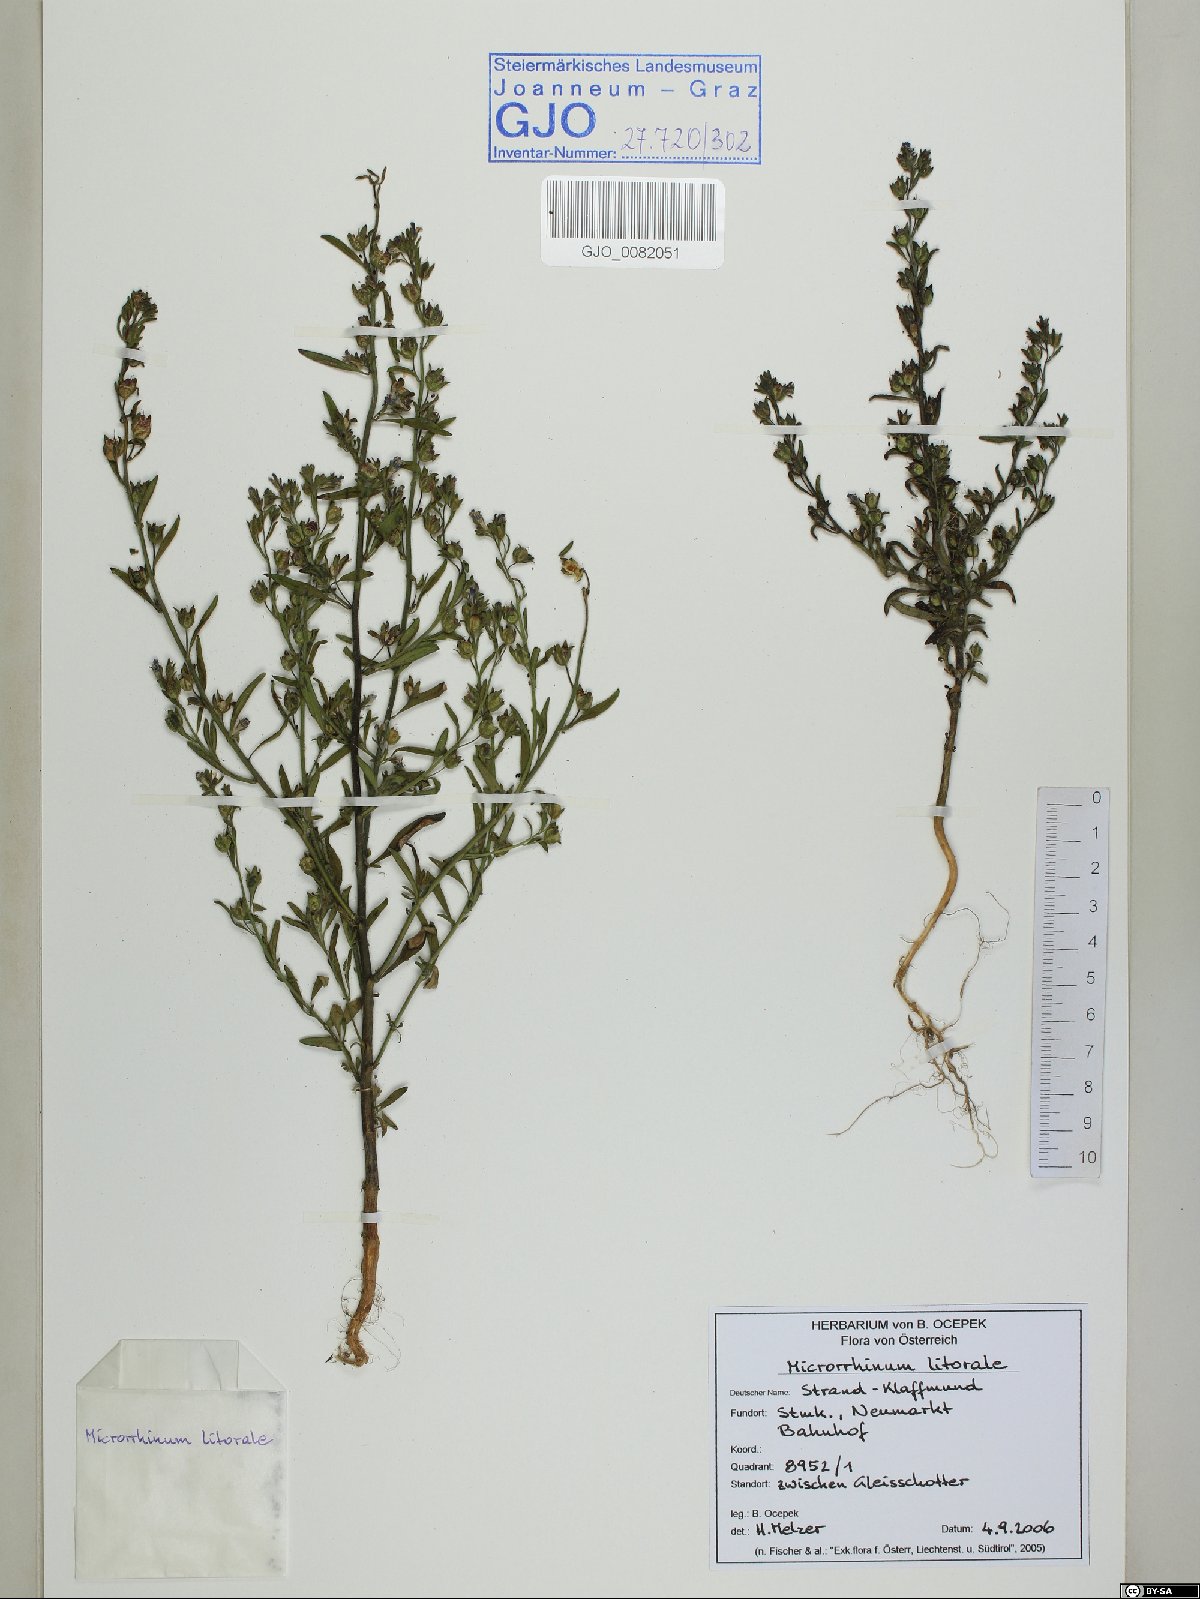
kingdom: Plantae
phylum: Tracheophyta
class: Magnoliopsida
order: Lamiales
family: Plantaginaceae
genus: Chaenorhinum
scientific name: Chaenorhinum litorale
